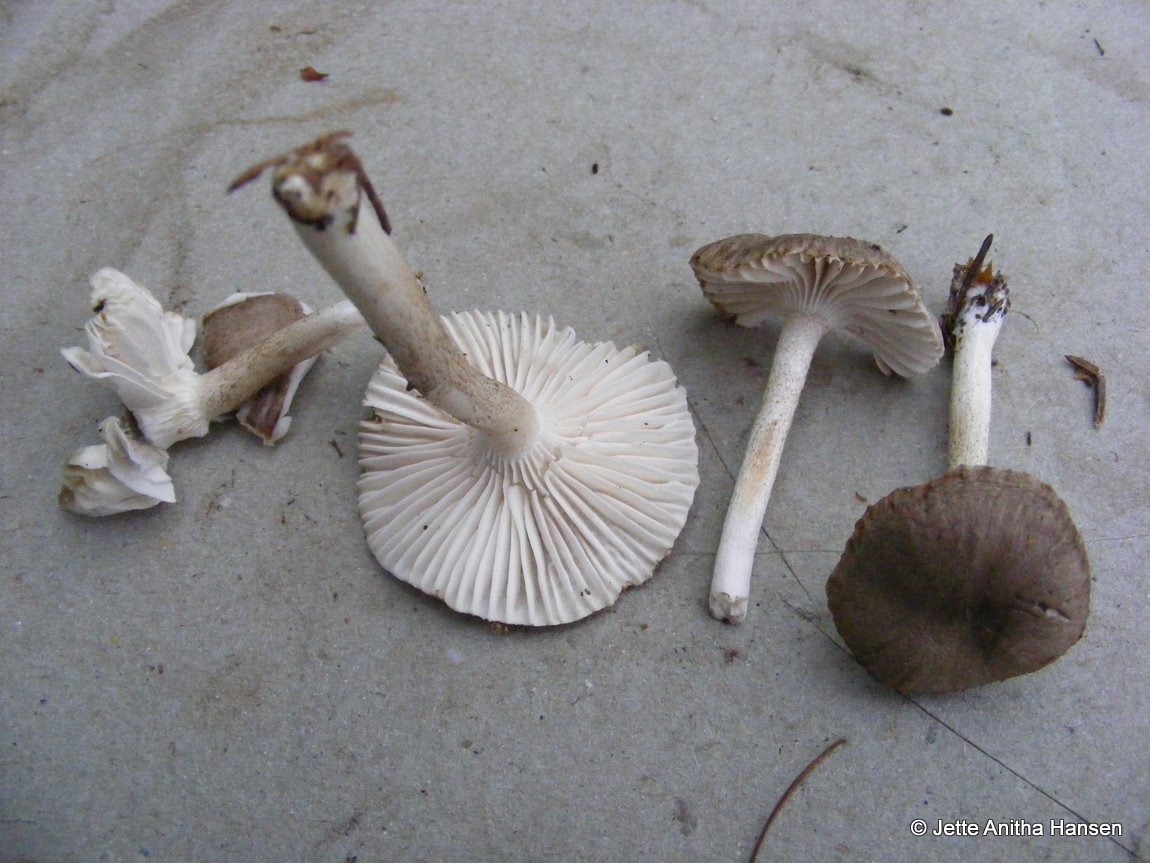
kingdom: Fungi
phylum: Basidiomycota
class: Agaricomycetes
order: Agaricales
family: Hygrophoraceae
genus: Hygrophorus
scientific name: Hygrophorus pustulatus
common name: mørkprikket sneglehat
